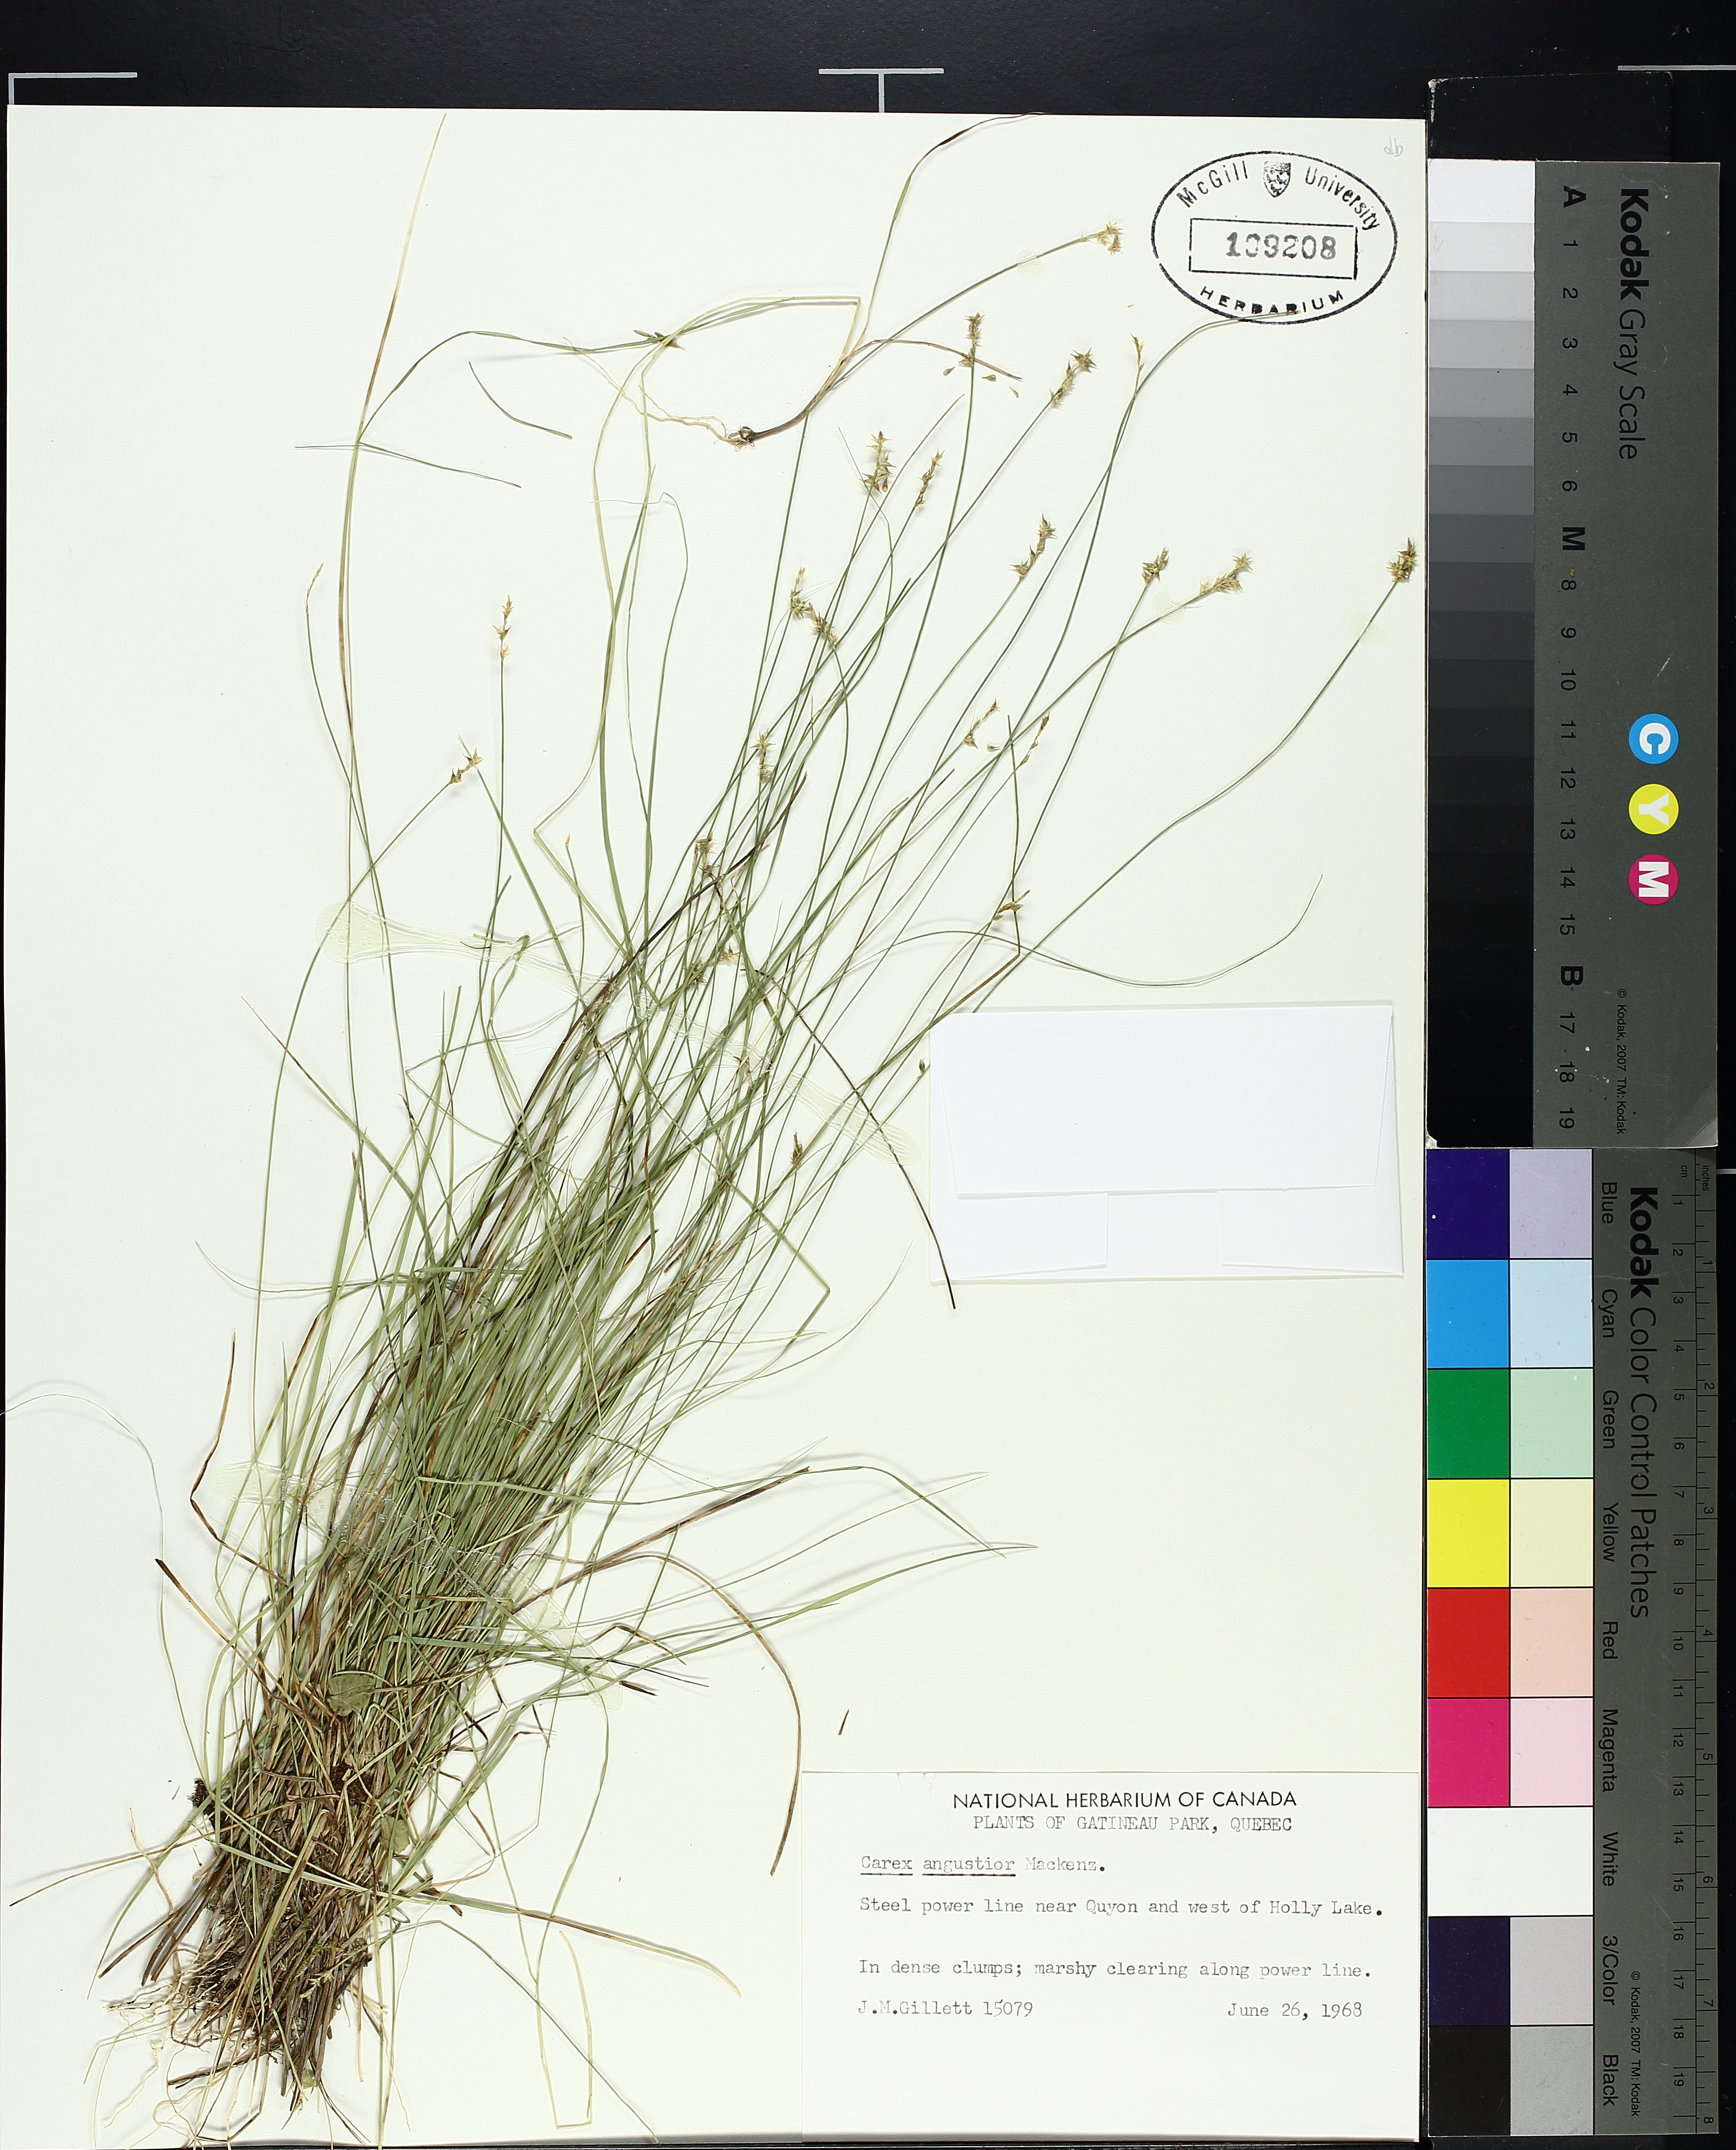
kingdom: Plantae
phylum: Tracheophyta
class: Liliopsida
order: Poales
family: Cyperaceae
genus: Carex
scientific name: Carex echinata
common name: Star sedge
